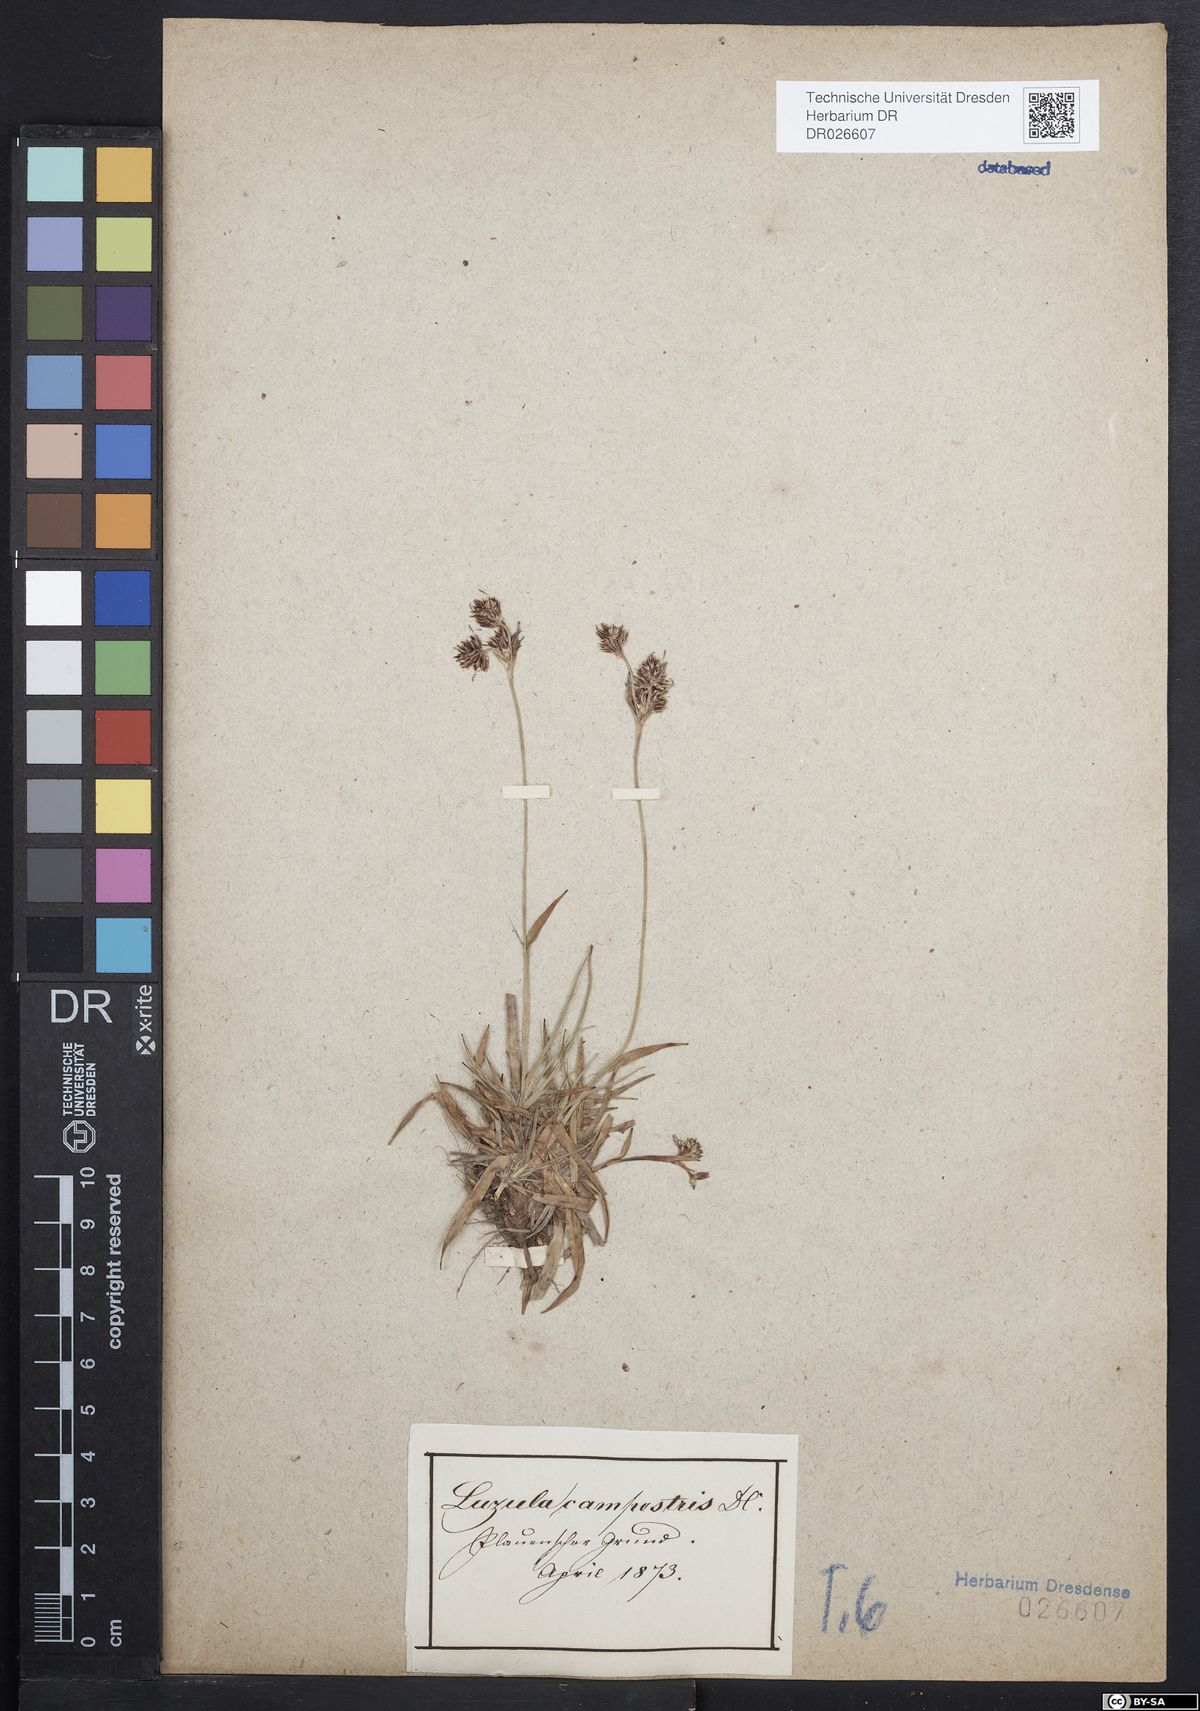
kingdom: Plantae
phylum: Tracheophyta
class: Liliopsida
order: Poales
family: Juncaceae
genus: Luzula
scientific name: Luzula campestris
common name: Field wood-rush
